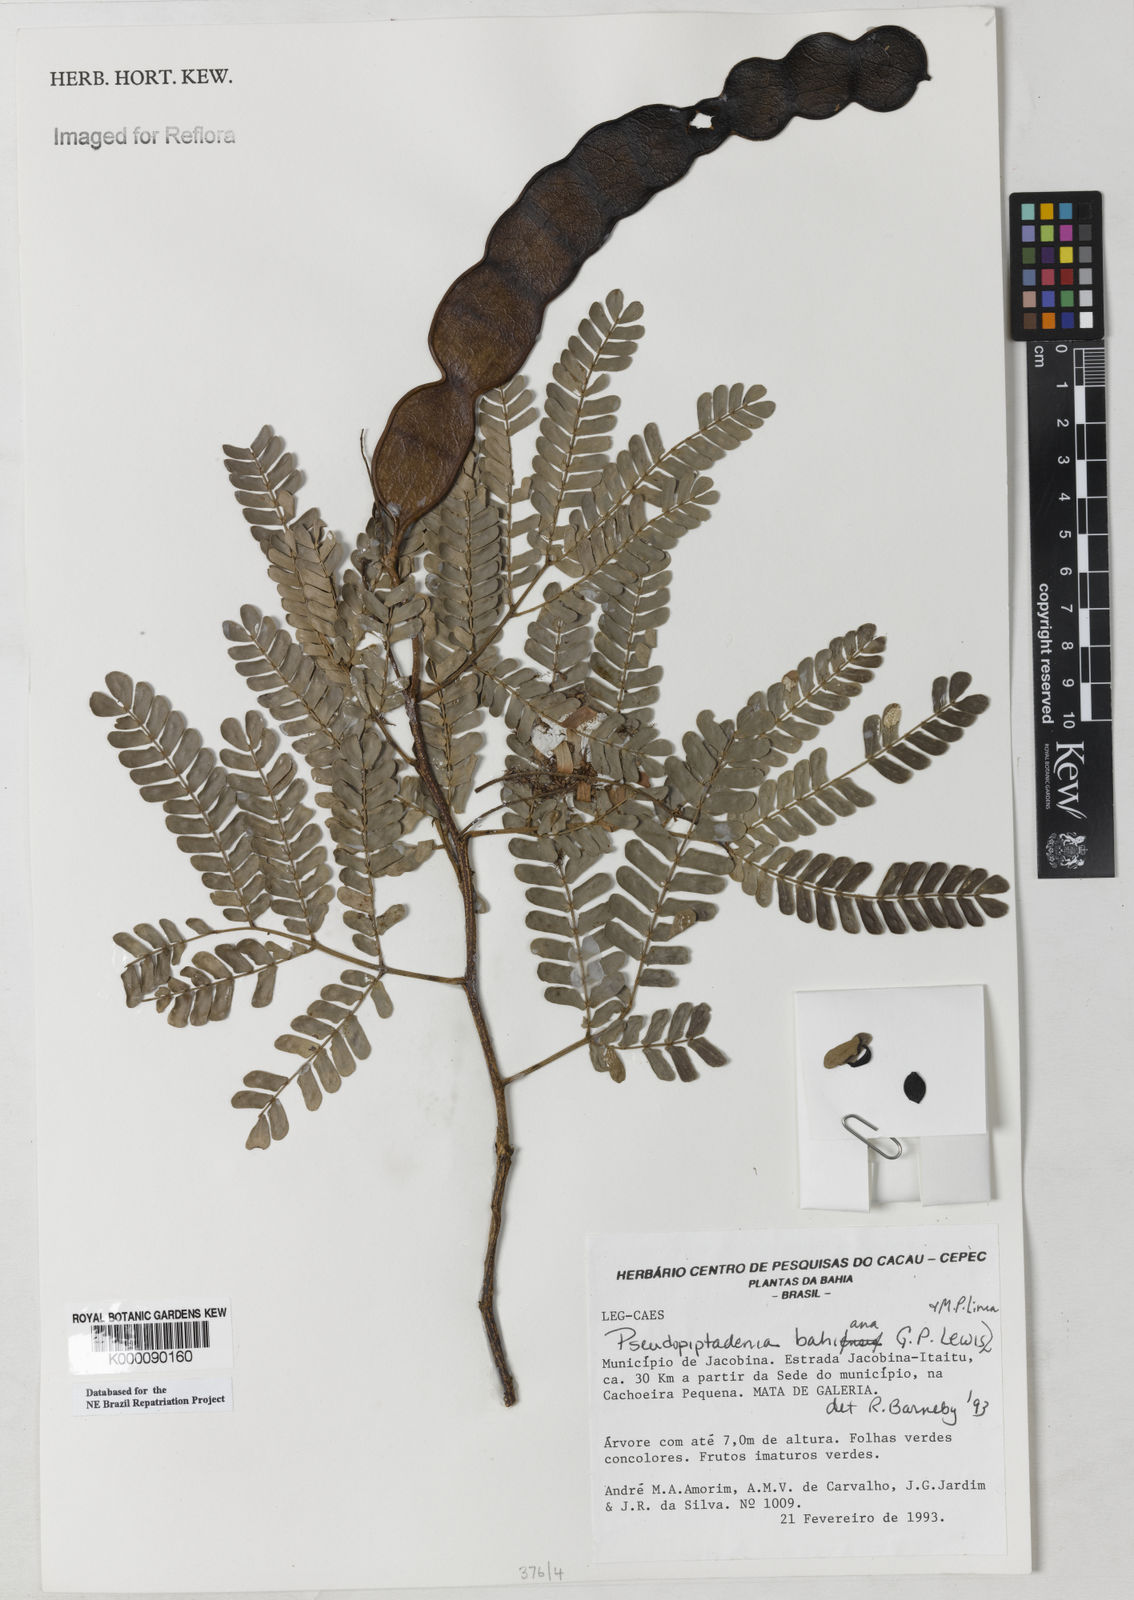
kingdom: Plantae
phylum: Tracheophyta
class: Magnoliopsida
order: Fabales
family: Fabaceae
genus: Pseudopiptadenia
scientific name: Pseudopiptadenia bahiana
